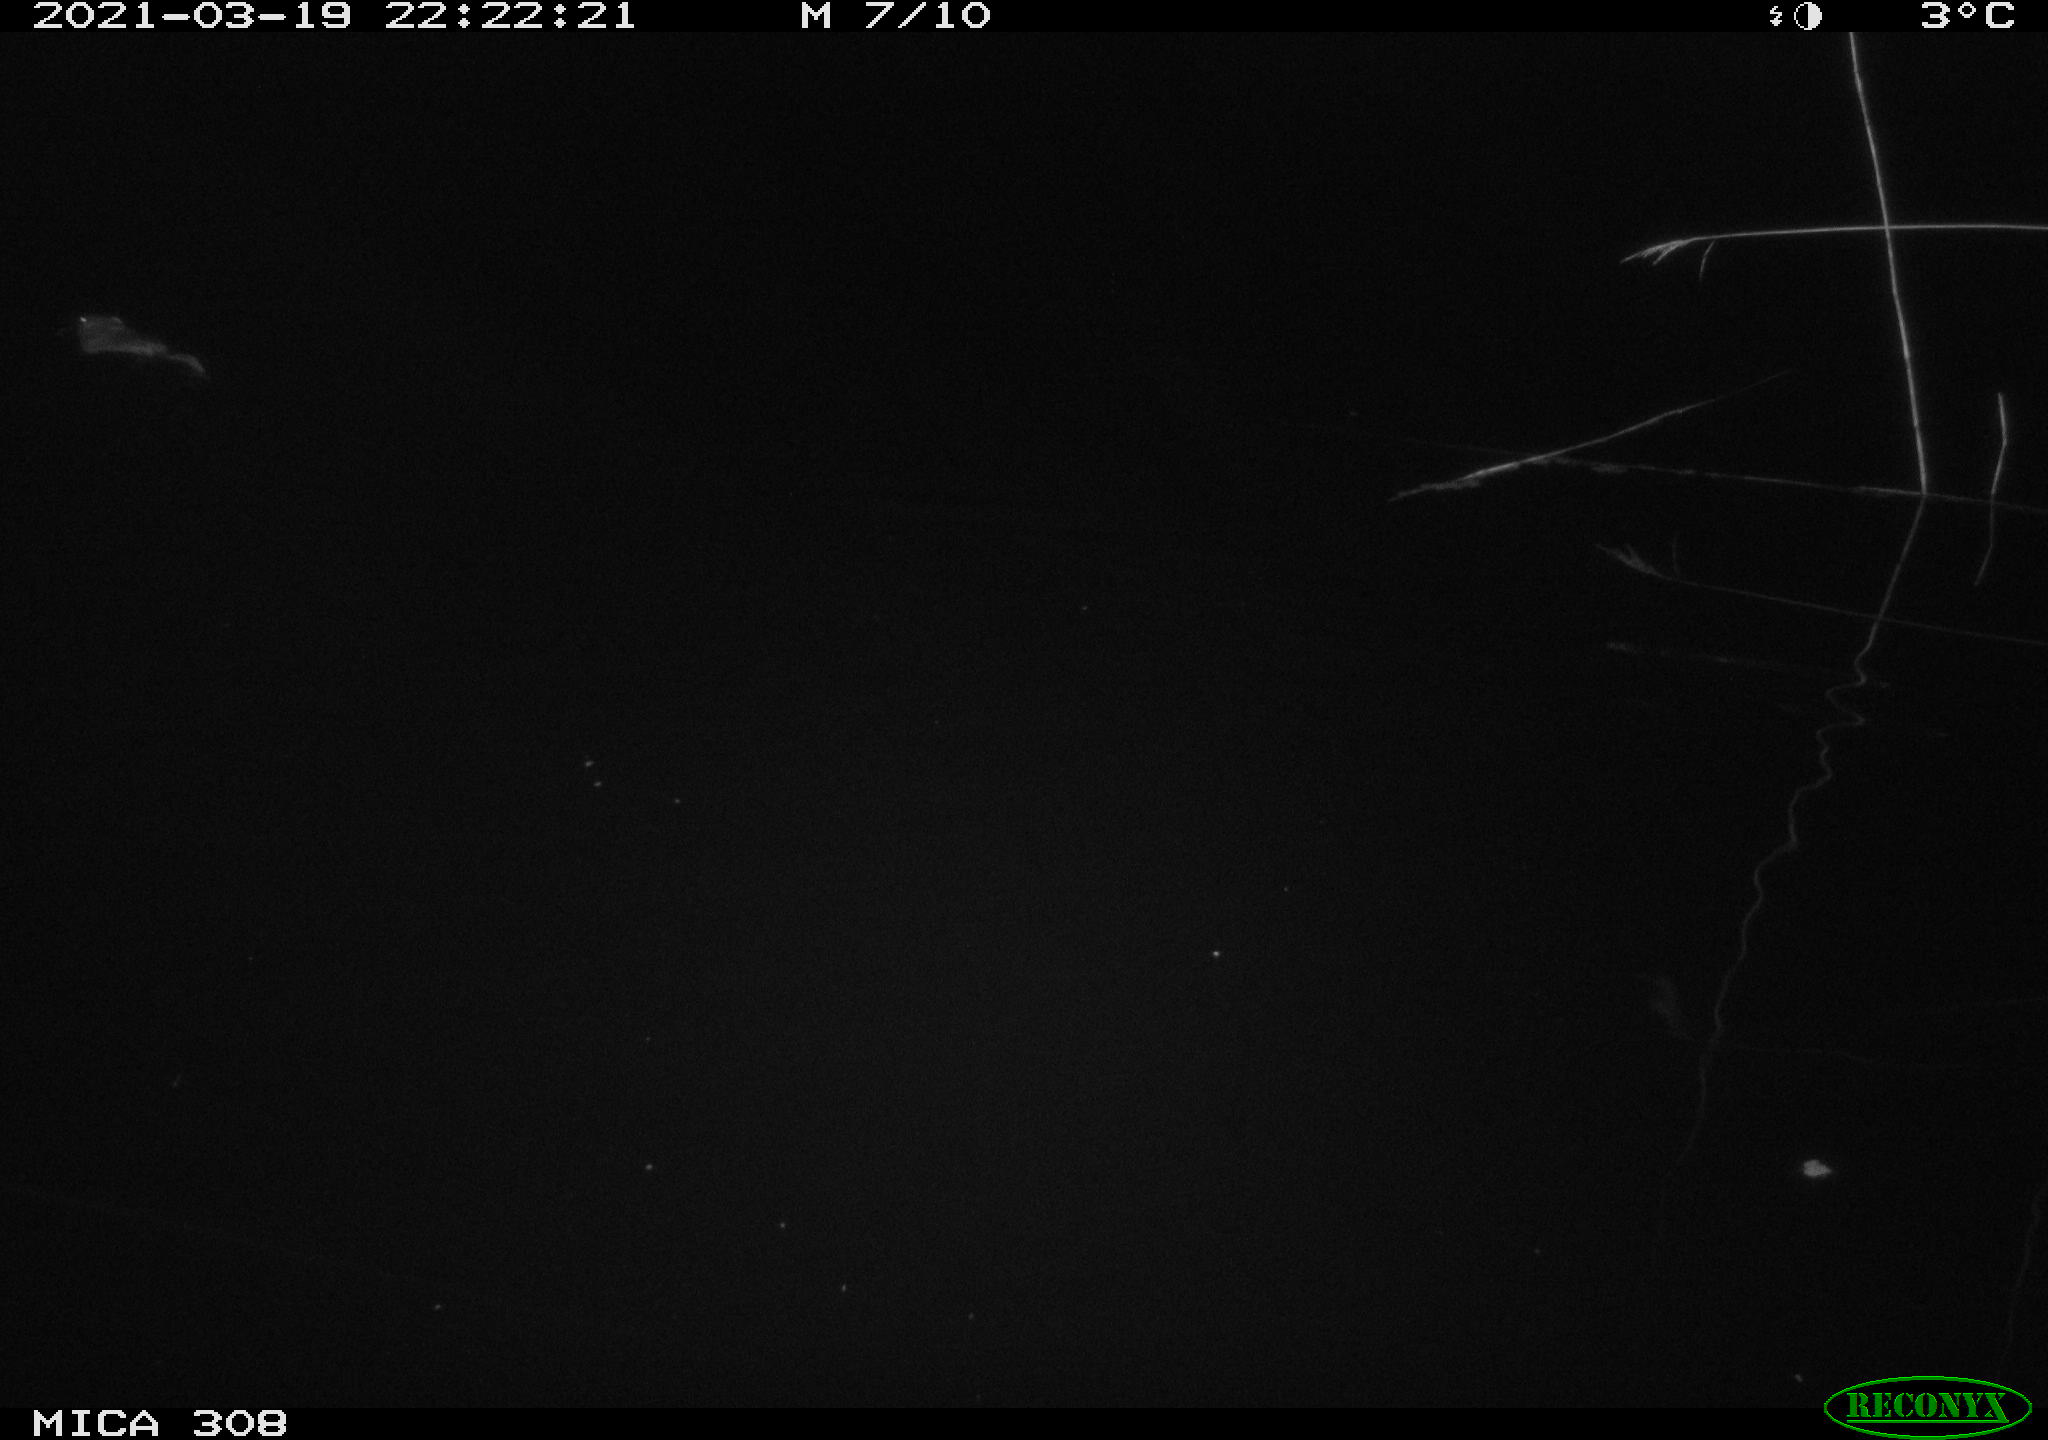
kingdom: Animalia
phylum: Chordata
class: Mammalia
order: Rodentia
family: Cricetidae
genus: Ondatra
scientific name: Ondatra zibethicus
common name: Muskrat
